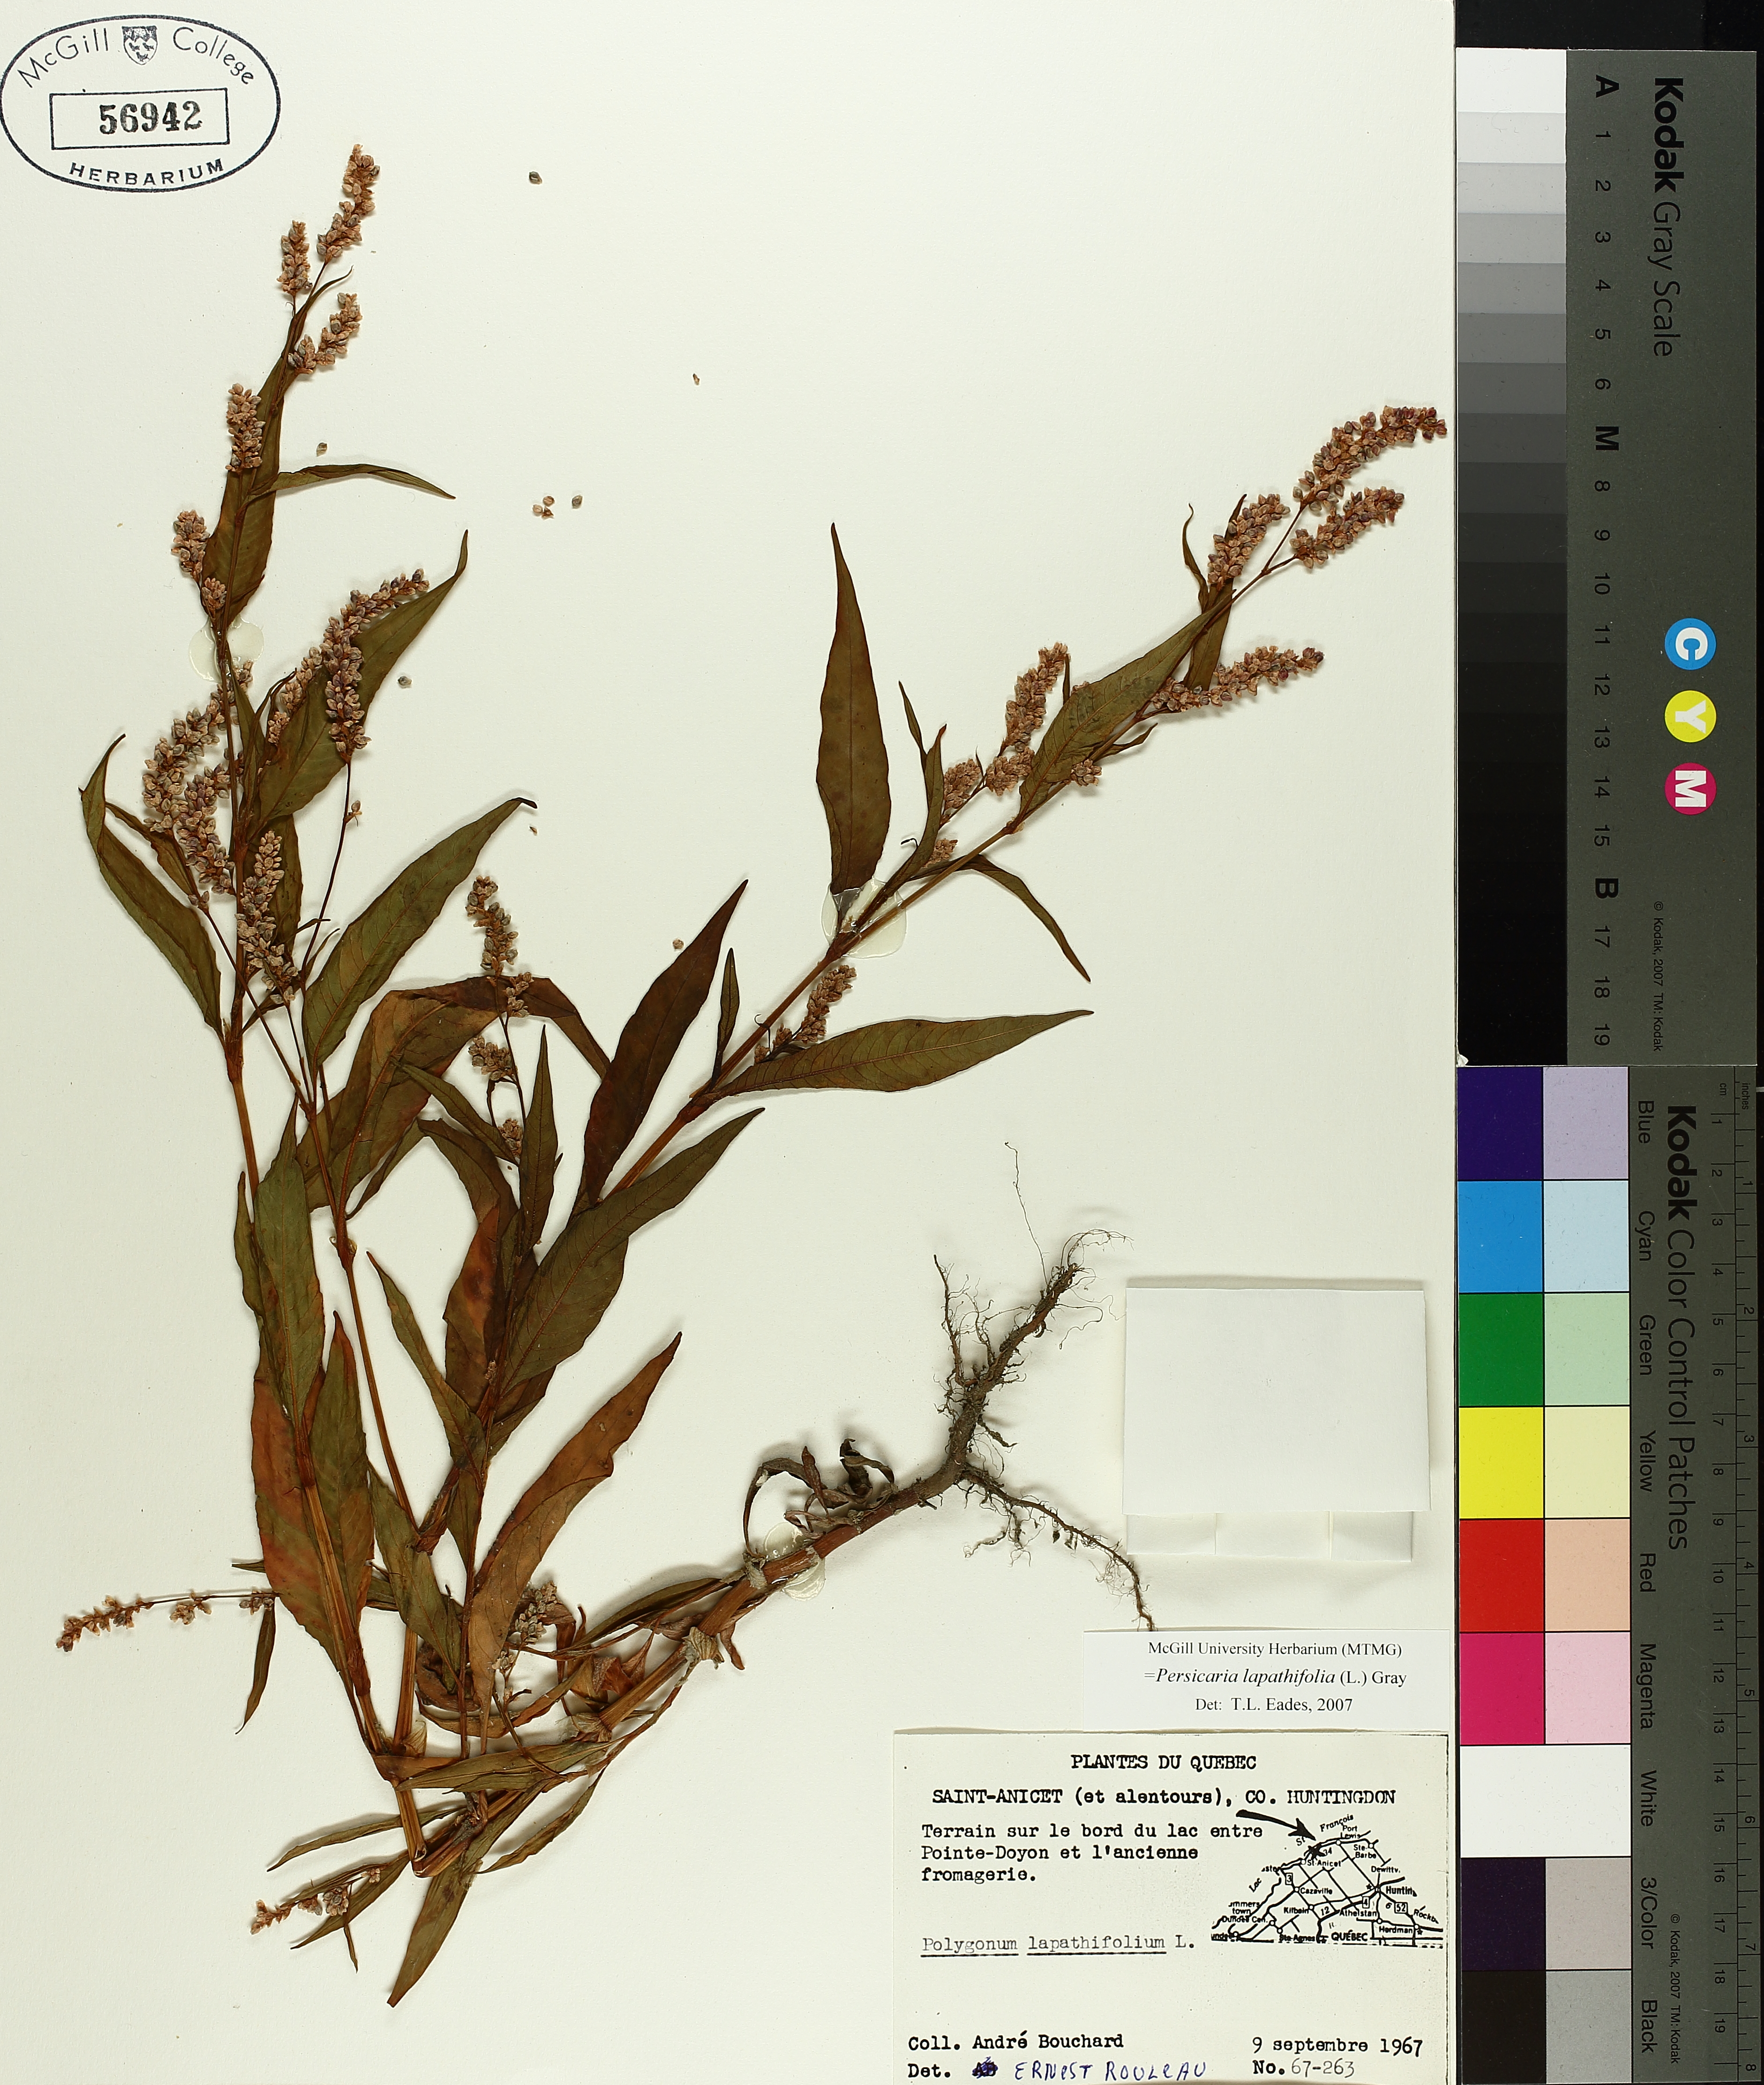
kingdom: Plantae
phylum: Tracheophyta
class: Magnoliopsida
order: Caryophyllales
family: Polygonaceae
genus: Persicaria
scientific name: Persicaria lapathifolia
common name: Curlytop knotweed
